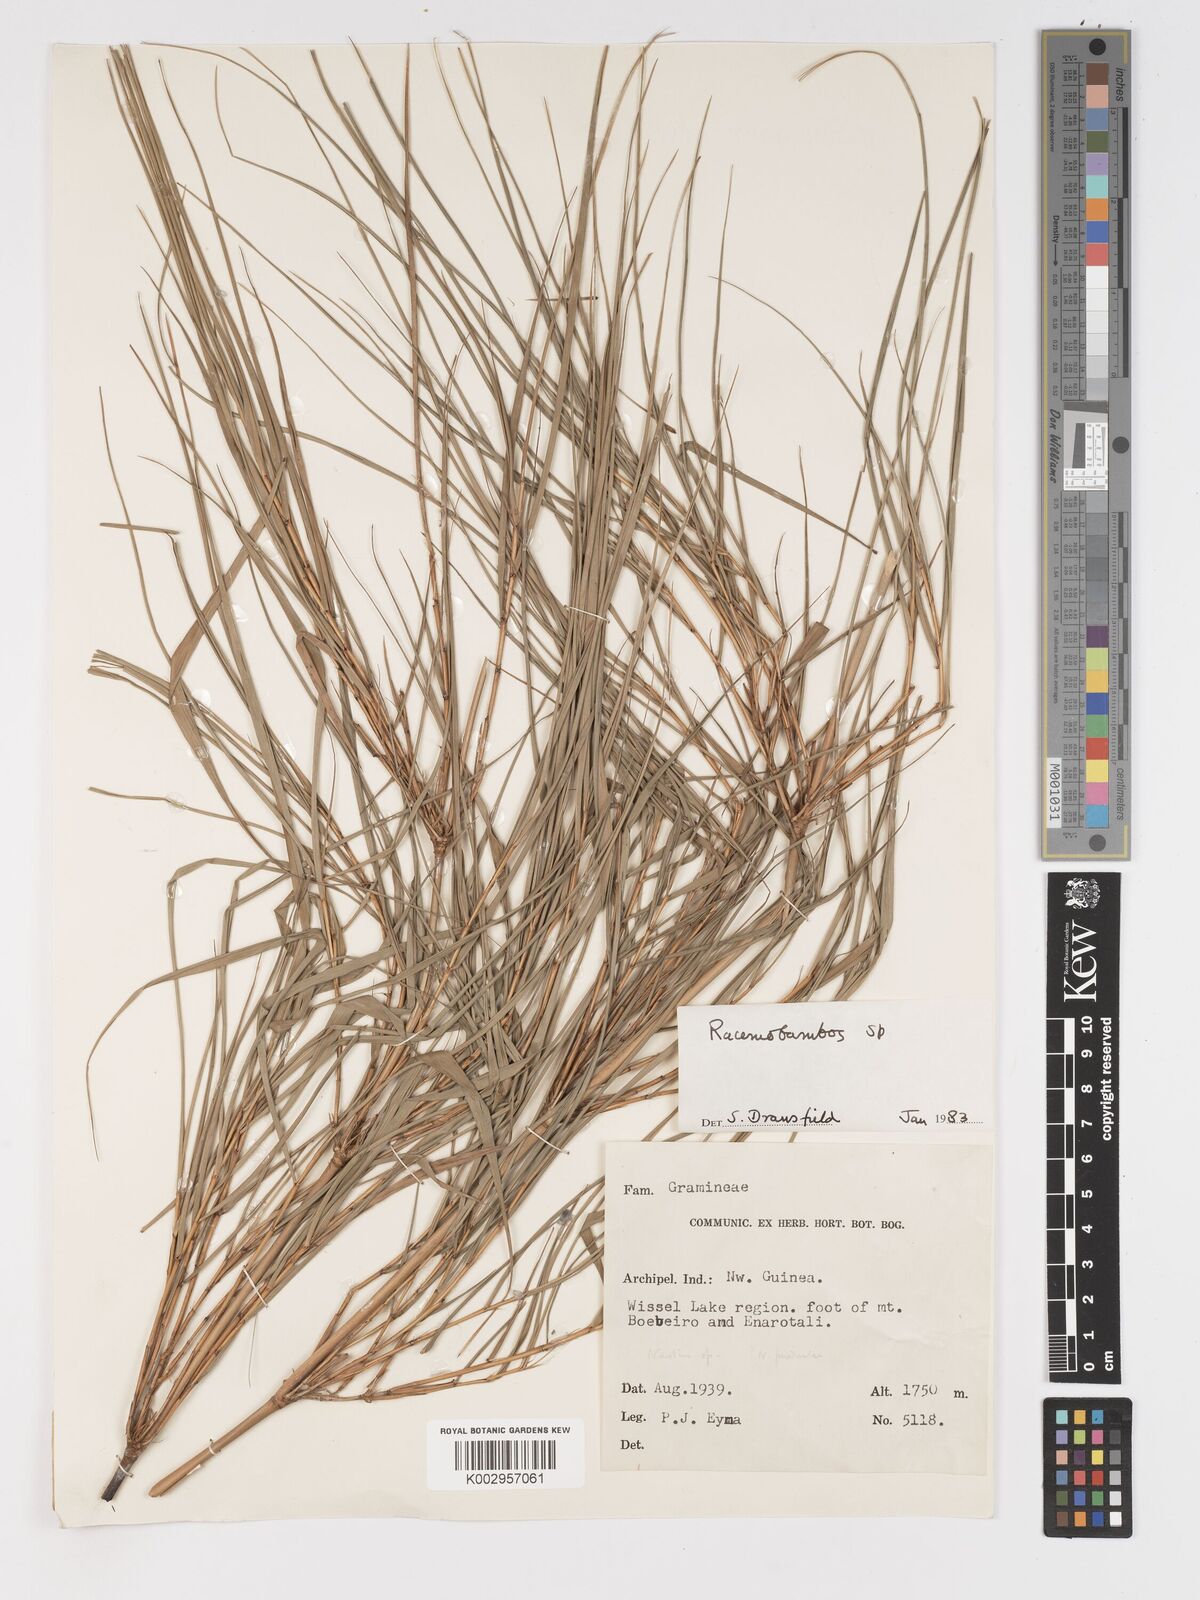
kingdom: Plantae
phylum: Tracheophyta
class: Liliopsida
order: Poales
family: Poaceae
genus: Racemobambos
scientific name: Racemobambos
